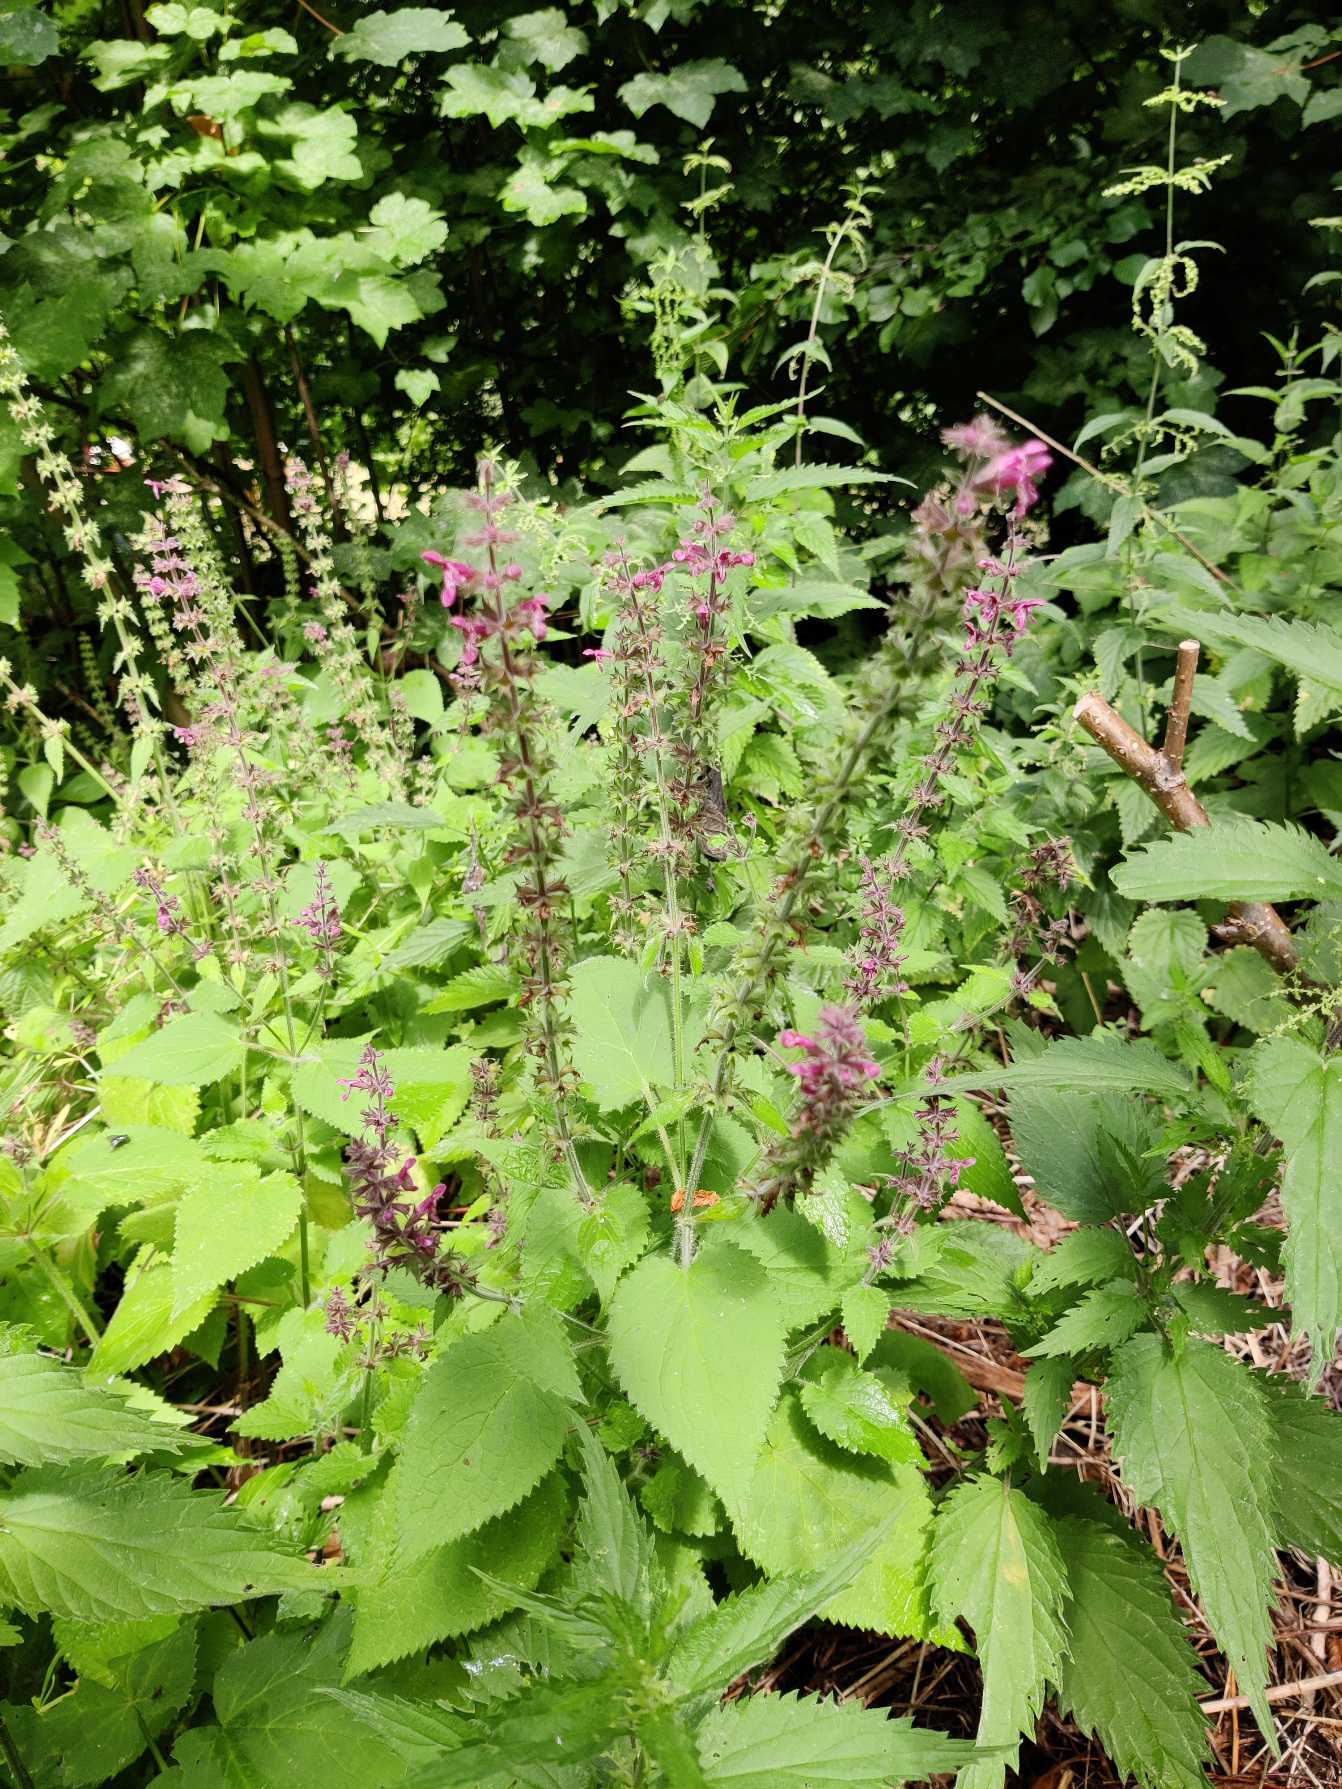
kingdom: Plantae
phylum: Tracheophyta
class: Magnoliopsida
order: Lamiales
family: Lamiaceae
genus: Stachys
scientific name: Stachys sylvatica
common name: Skov-galtetand
